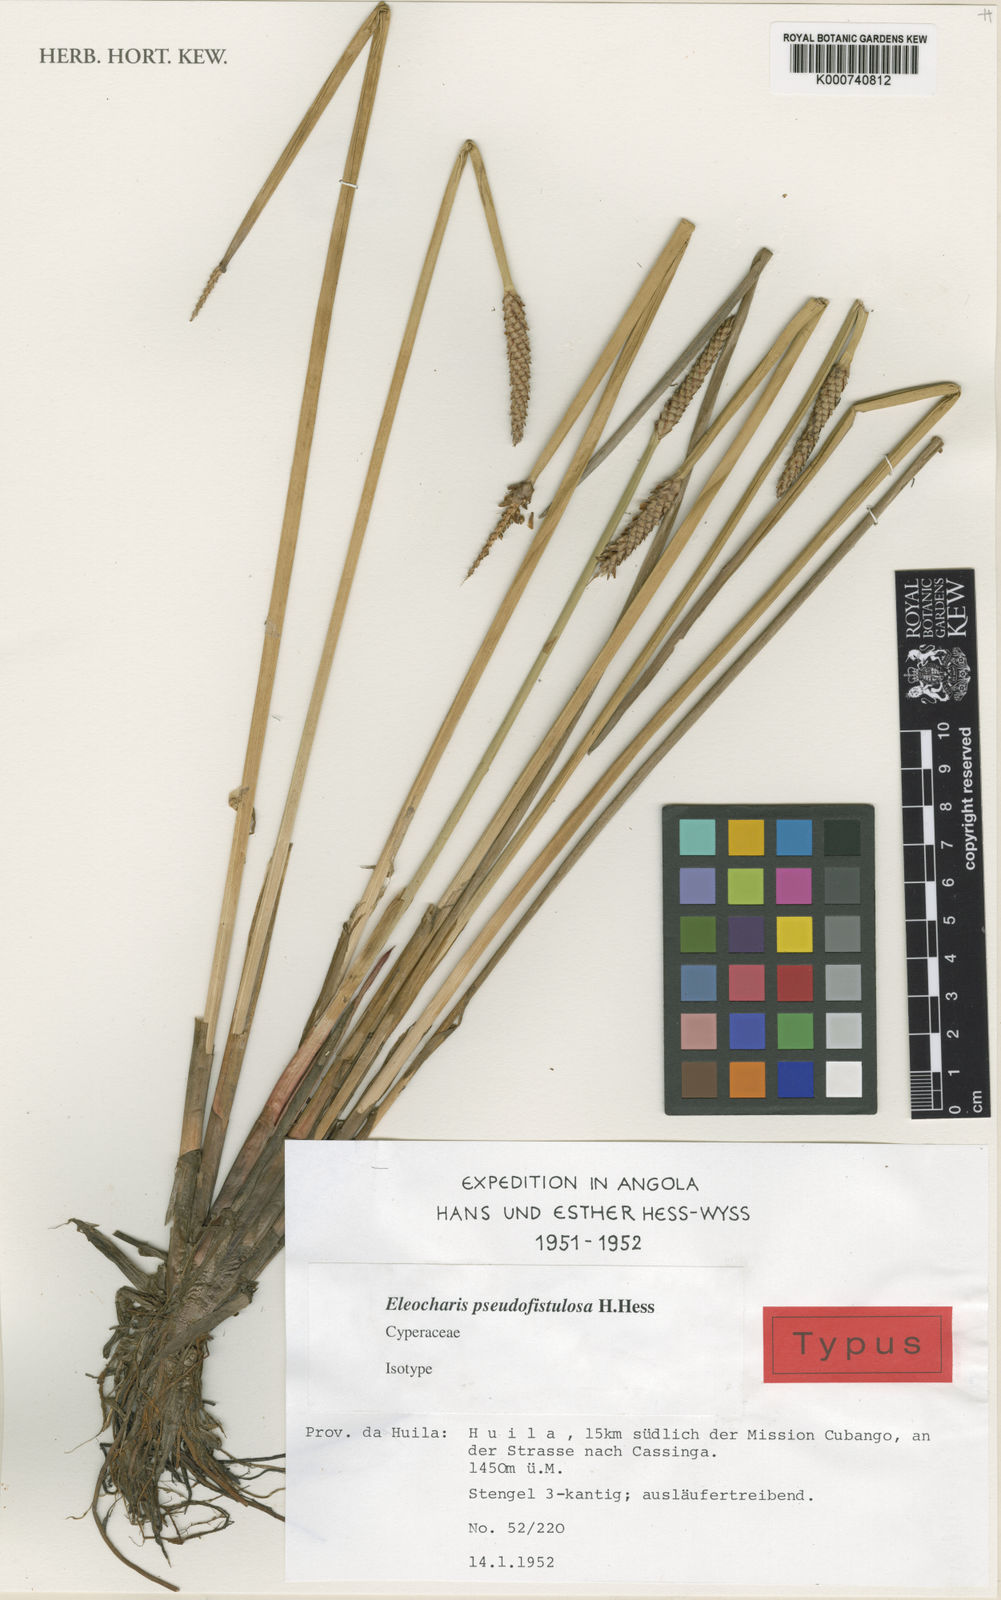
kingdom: Plantae
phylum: Tracheophyta
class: Liliopsida
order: Poales
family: Cyperaceae
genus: Eleocharis
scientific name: Eleocharis pseudofistulosa
